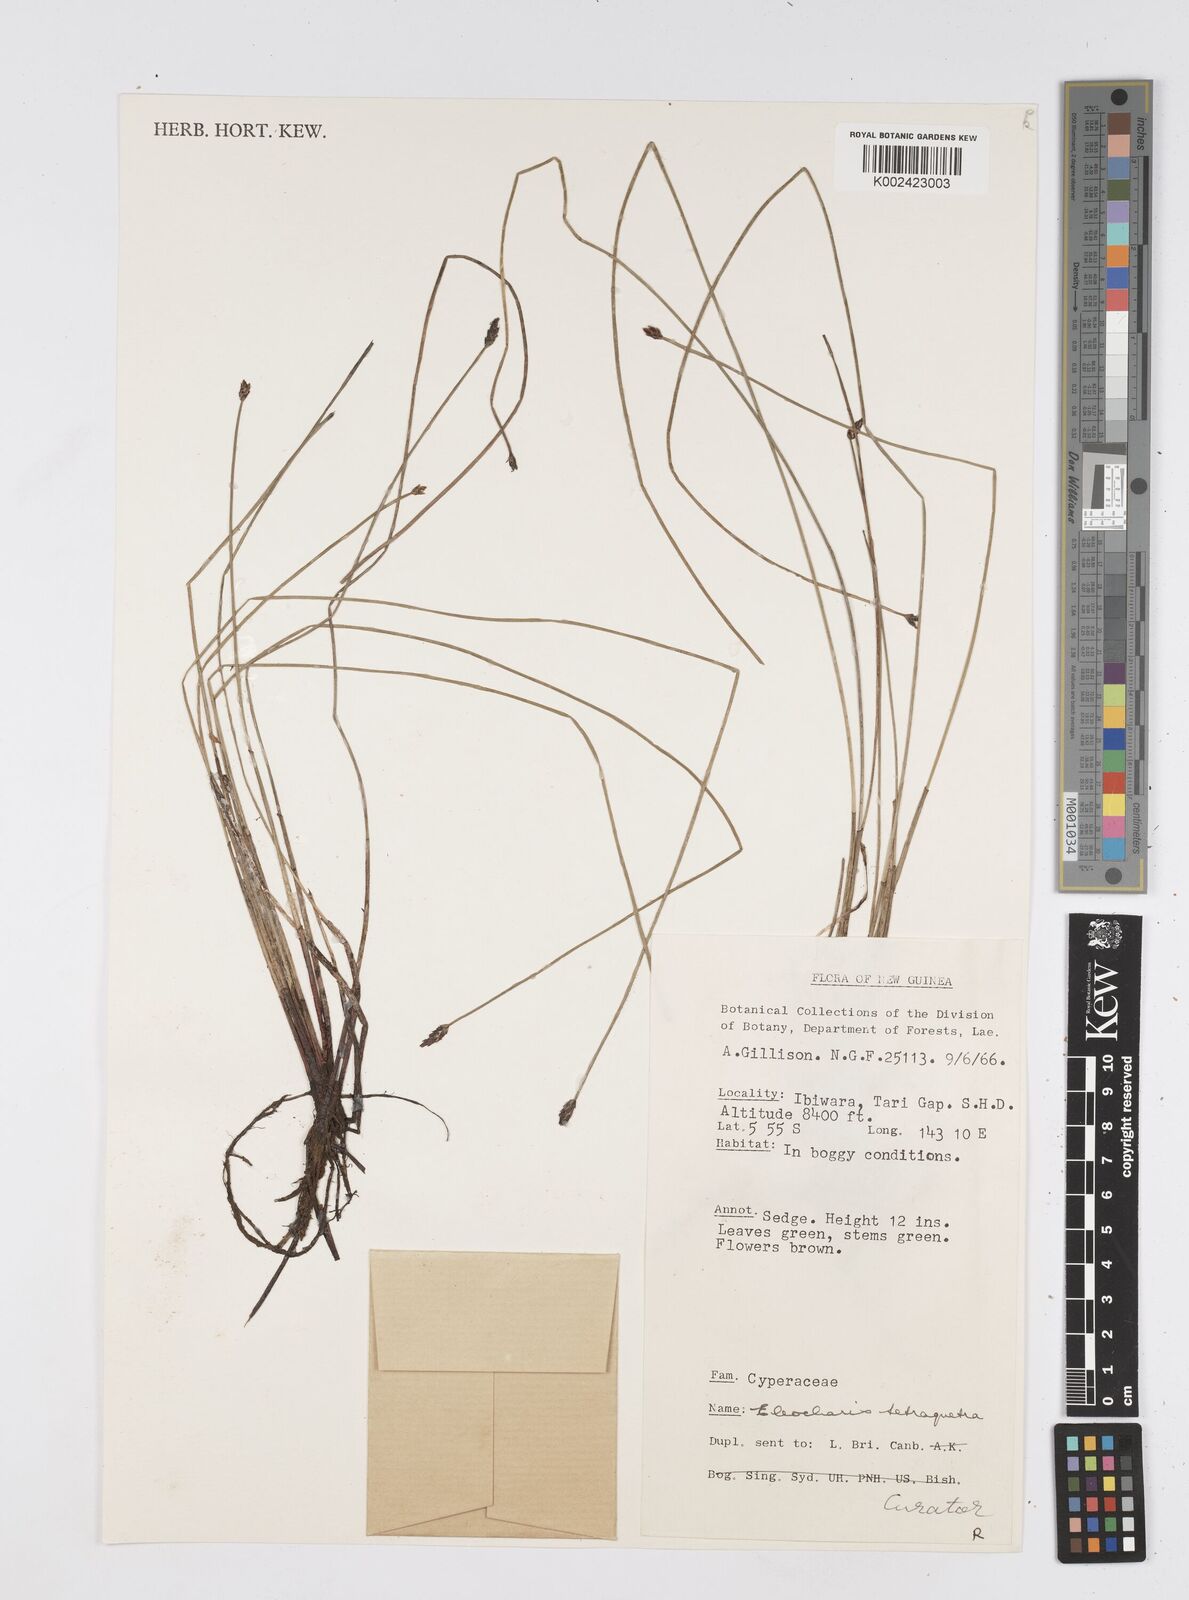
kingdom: Plantae
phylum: Tracheophyta
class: Liliopsida
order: Poales
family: Cyperaceae
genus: Eleocharis
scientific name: Eleocharis tetraquetra
